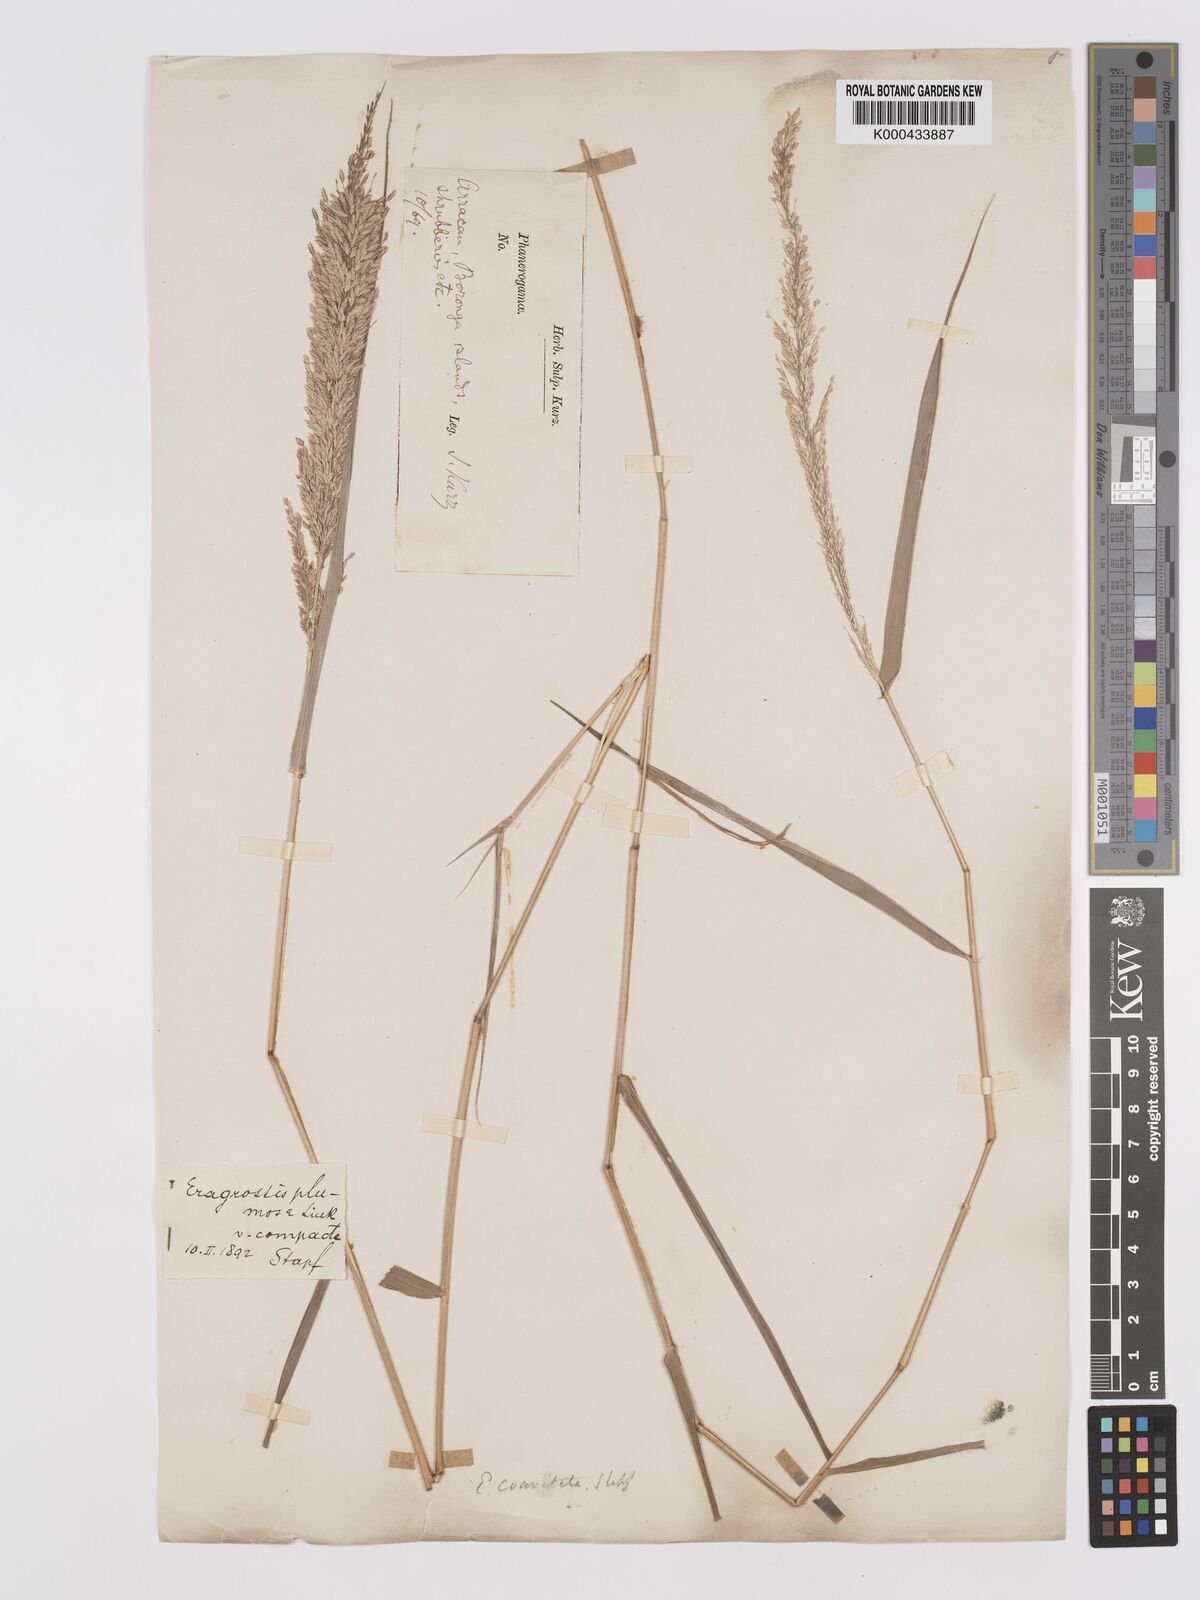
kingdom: Plantae
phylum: Tracheophyta
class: Liliopsida
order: Poales
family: Poaceae
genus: Eragrostis
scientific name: Eragrostis coarctata
